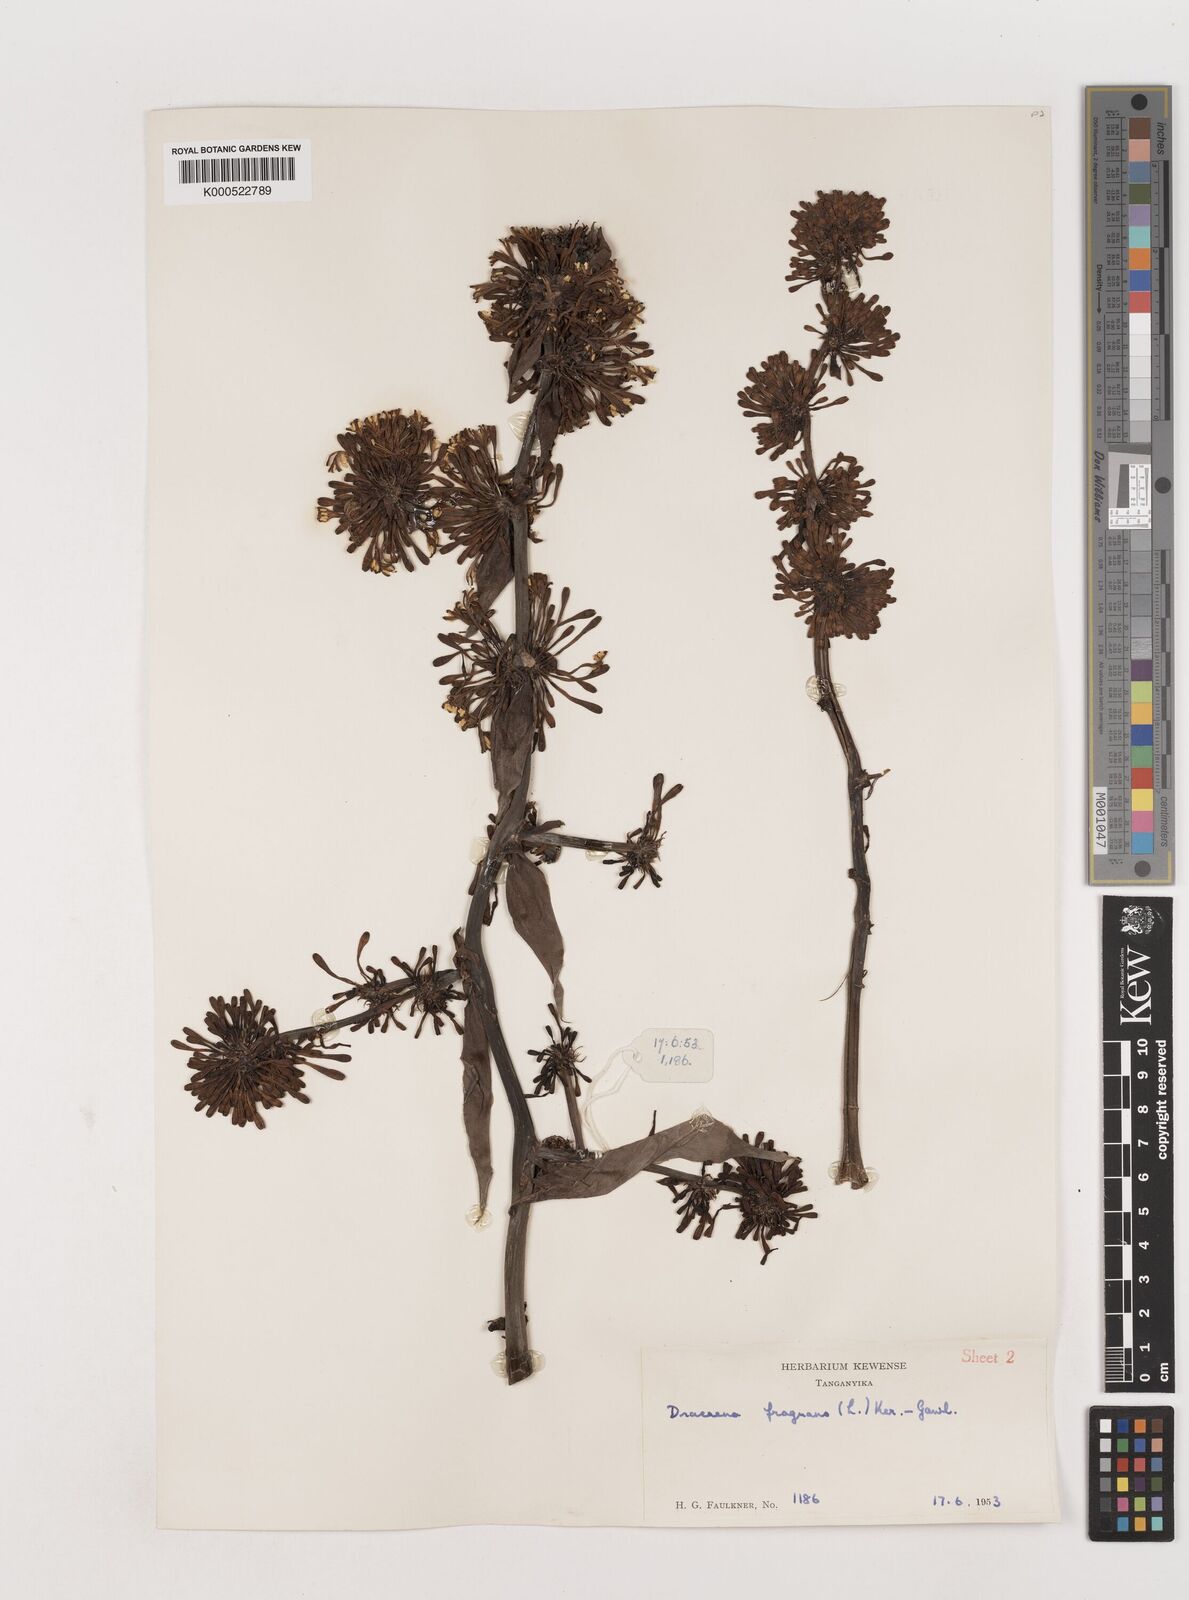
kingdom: Plantae
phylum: Tracheophyta
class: Liliopsida
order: Asparagales
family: Asparagaceae
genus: Dracaena
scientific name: Dracaena fragrans
